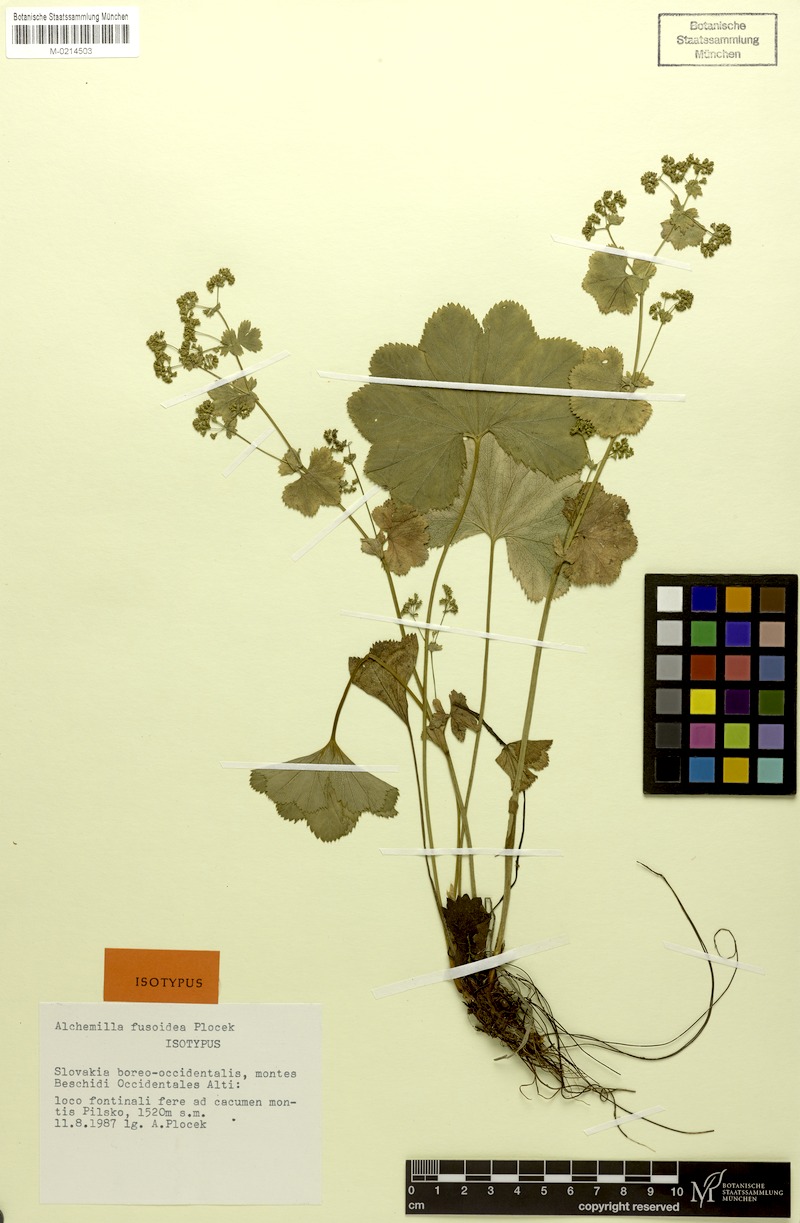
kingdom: Plantae
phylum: Tracheophyta
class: Magnoliopsida
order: Rosales
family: Rosaceae
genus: Alchemilla
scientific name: Alchemilla fusoidea
